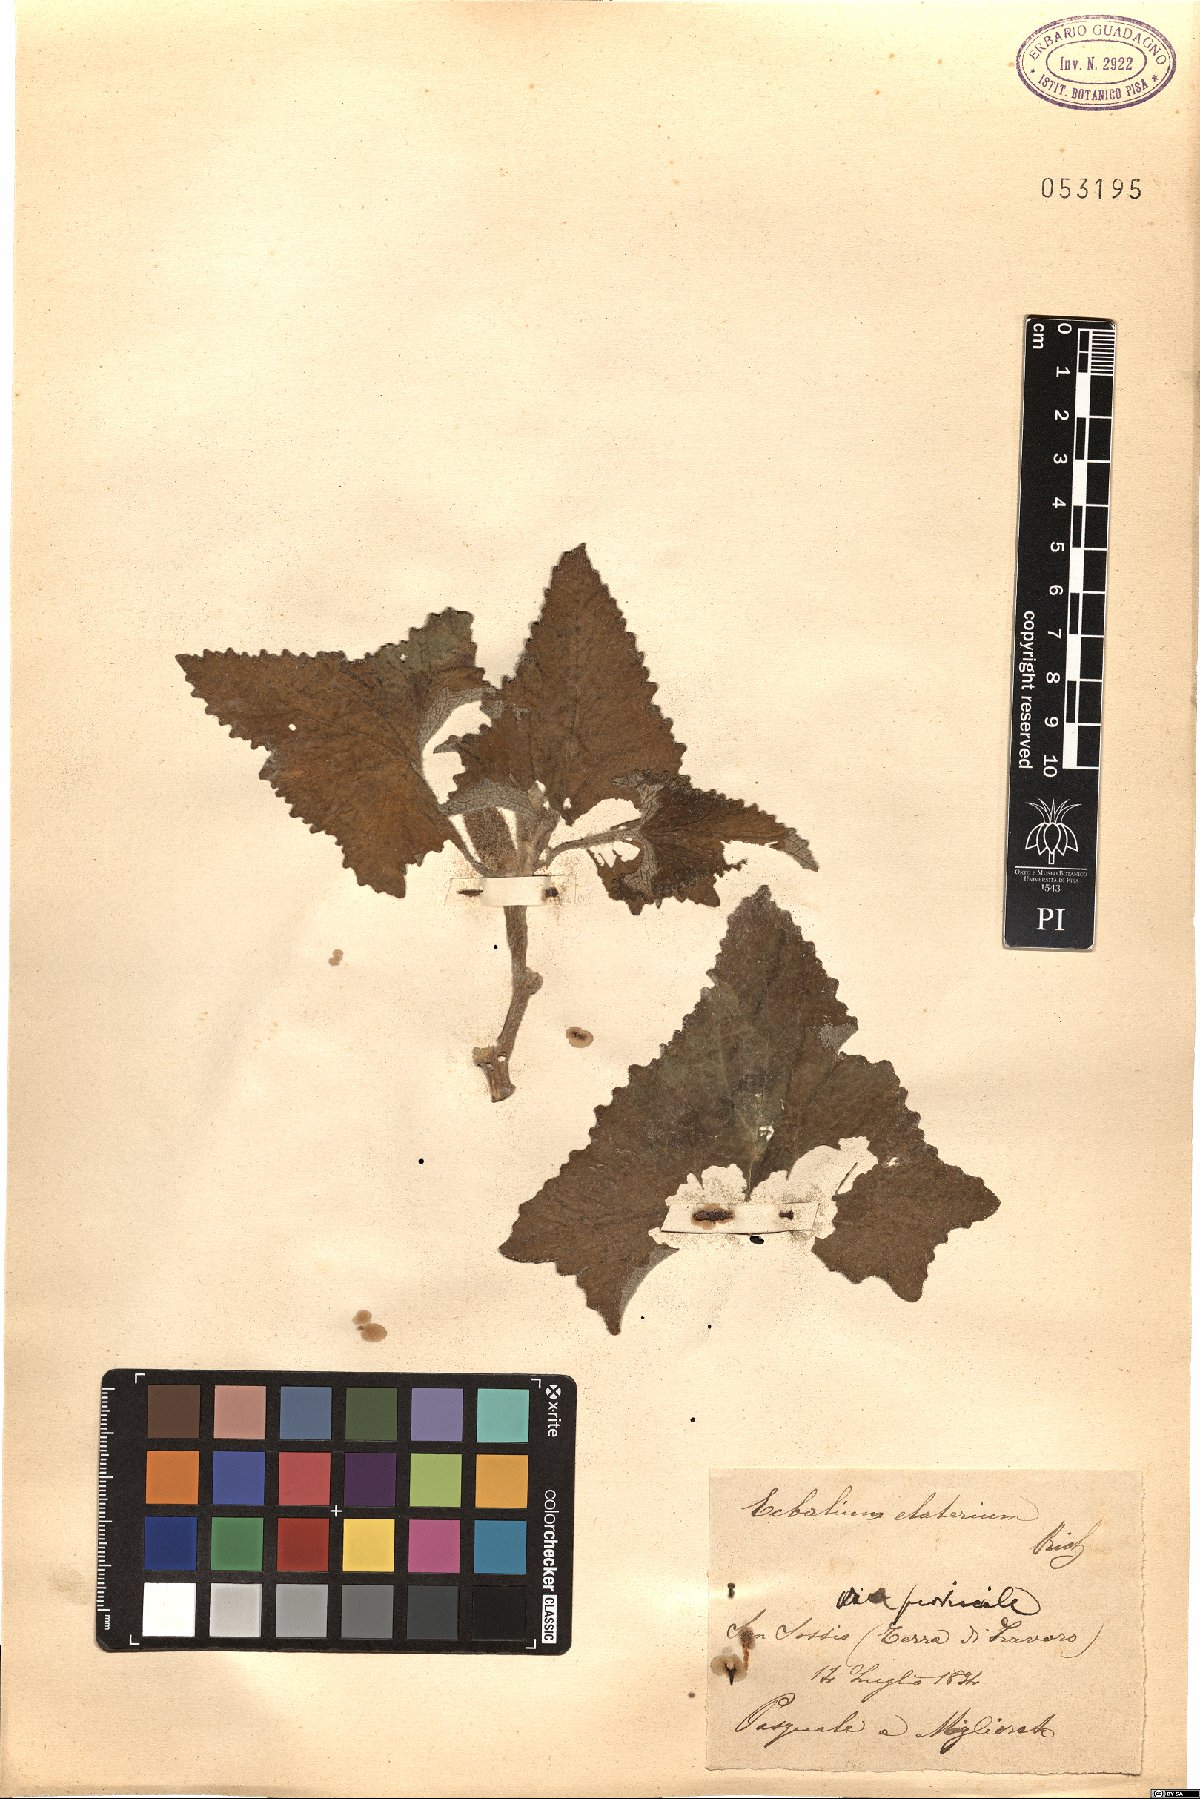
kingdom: Plantae
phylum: Tracheophyta
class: Magnoliopsida
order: Cucurbitales
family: Cucurbitaceae
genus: Ecballium
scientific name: Ecballium elaterium
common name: Squirting cucumber
